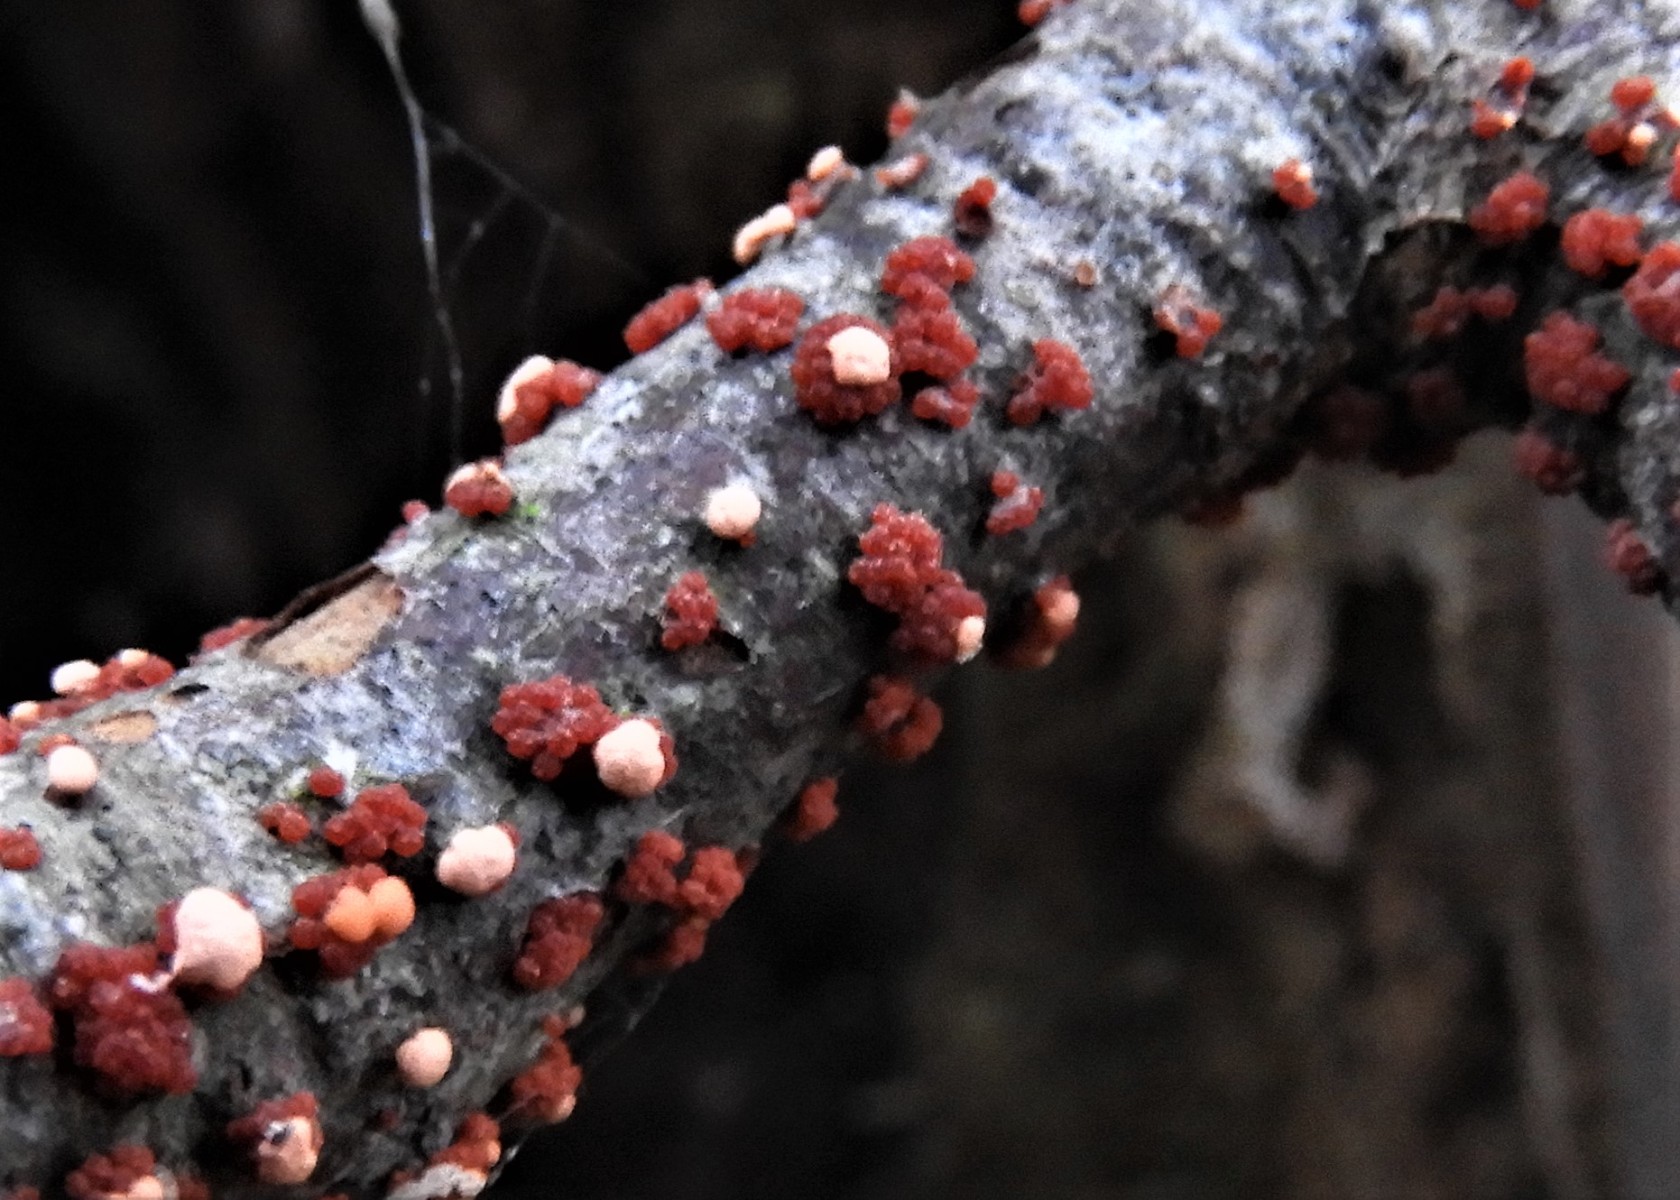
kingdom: Fungi
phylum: Ascomycota
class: Sordariomycetes
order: Hypocreales
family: Nectriaceae
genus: Nectria
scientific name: Nectria cinnabarina
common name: almindelig cinnobersvamp
